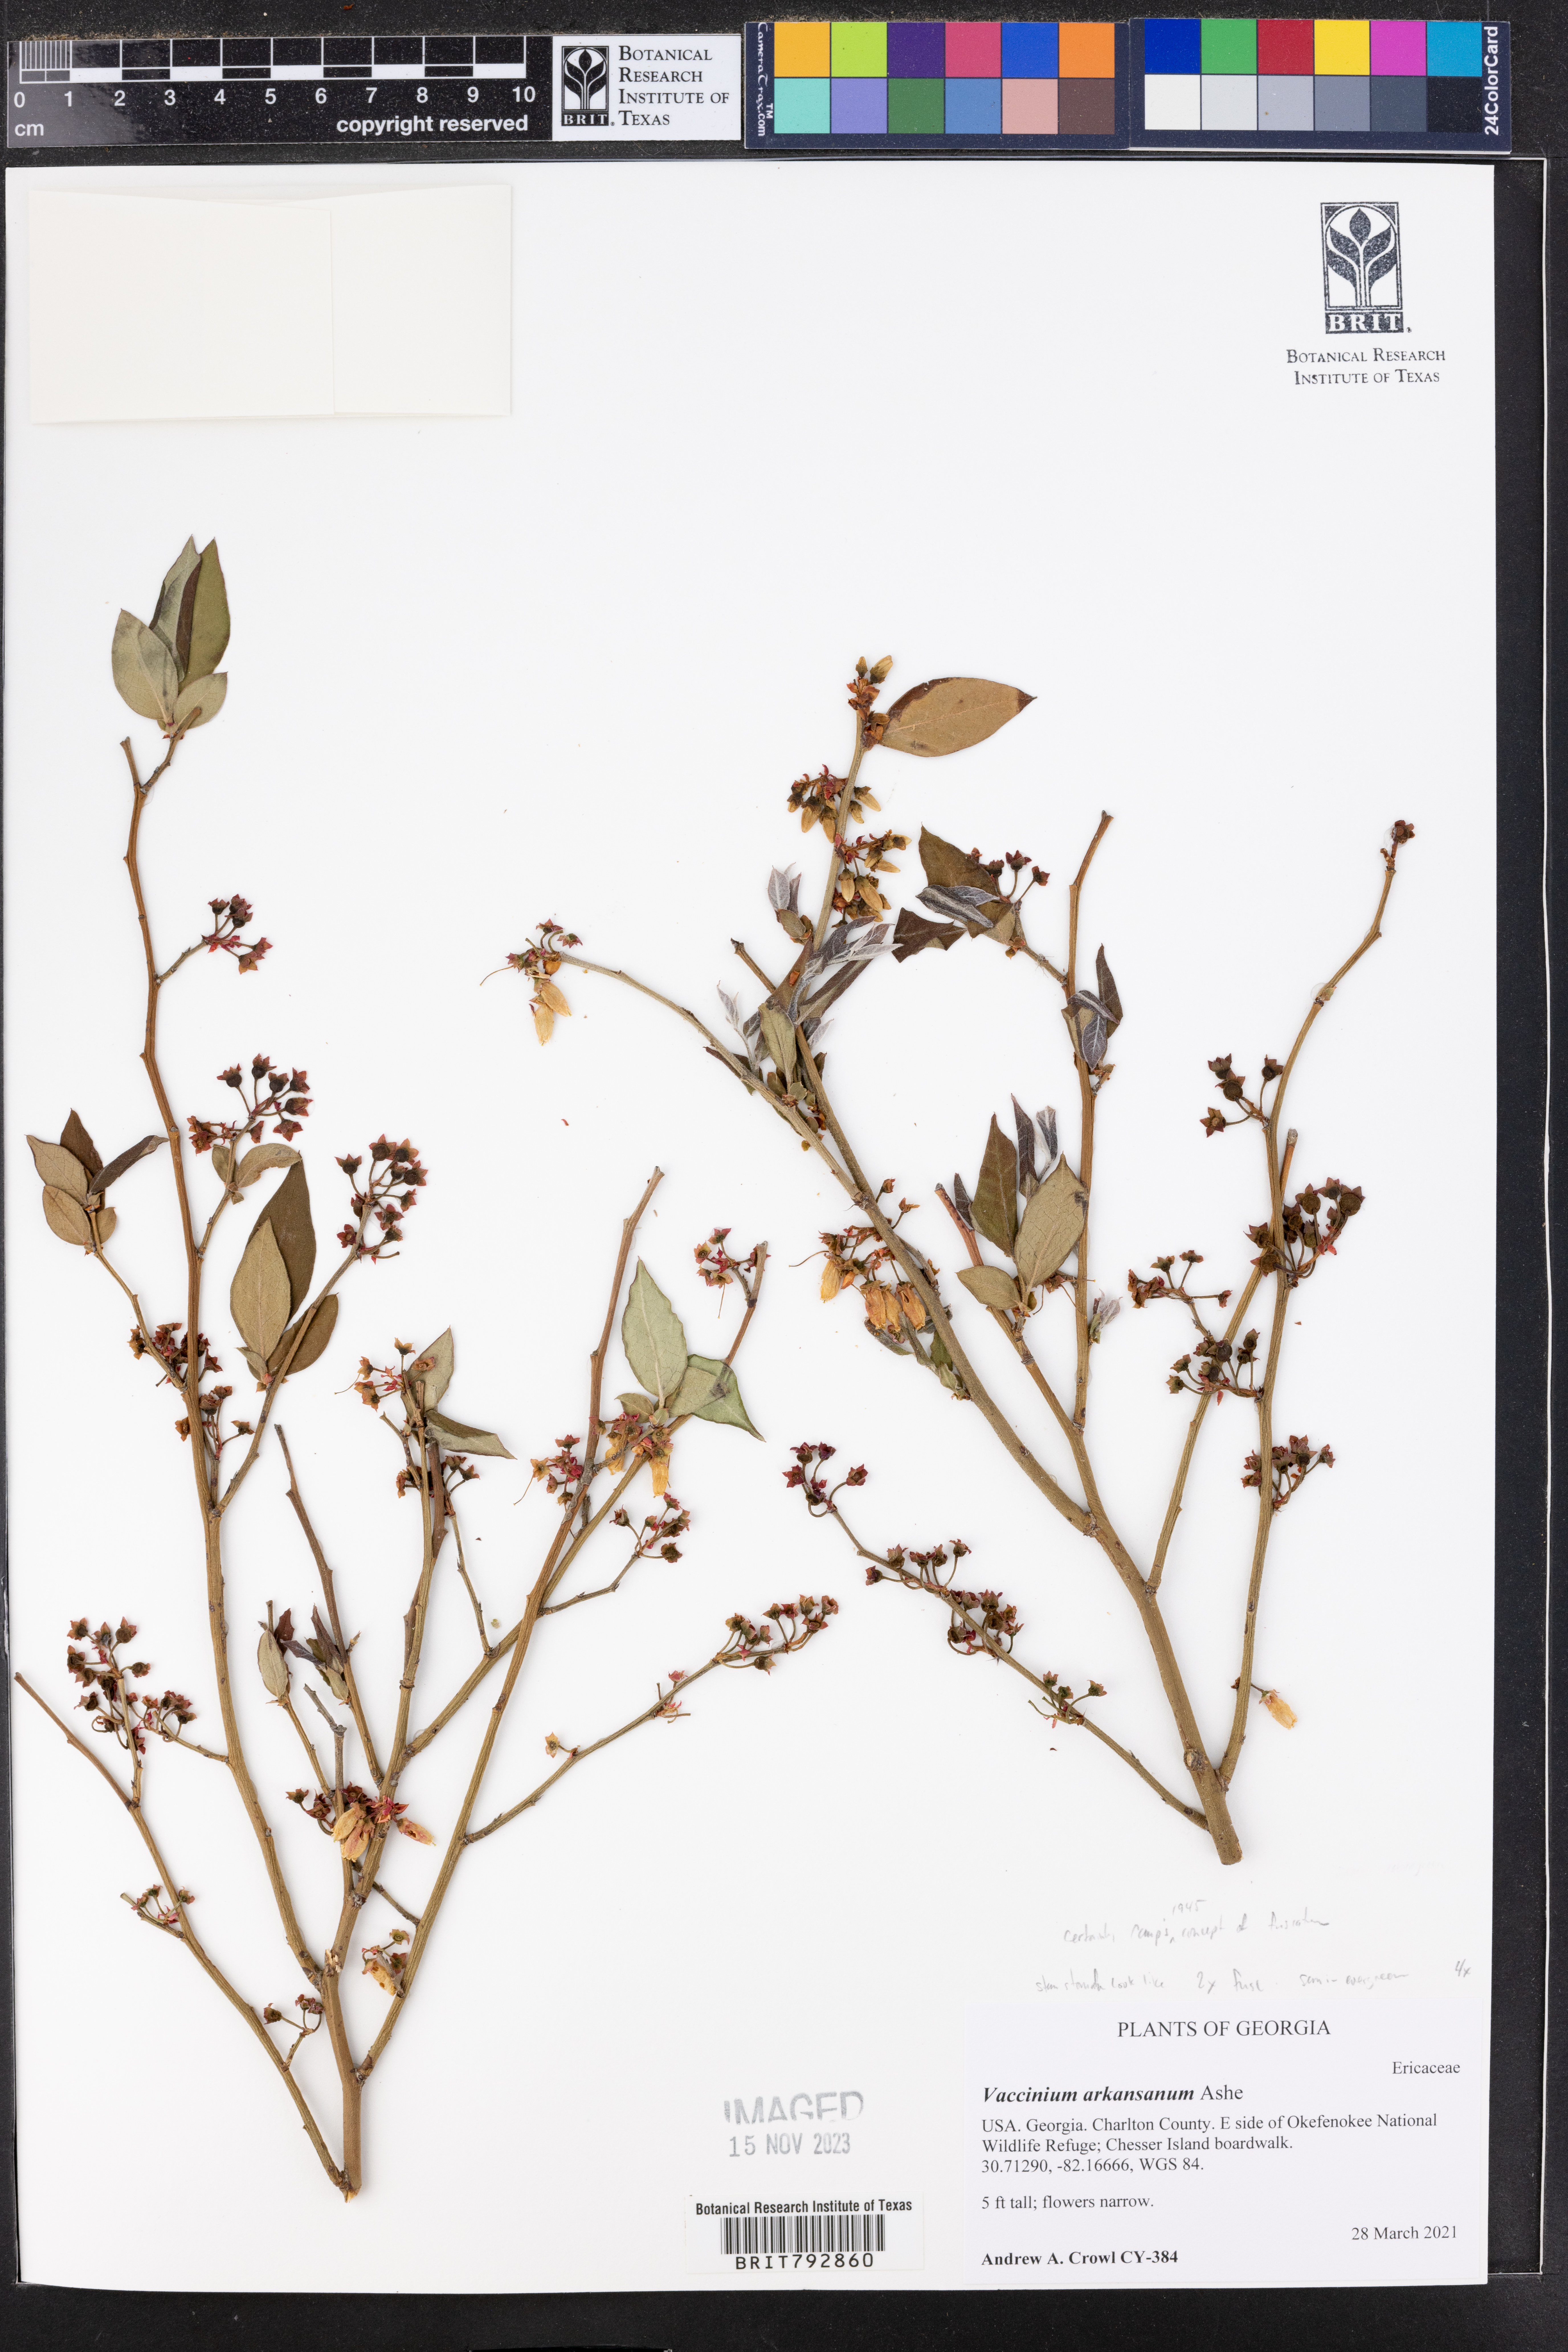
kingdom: Plantae
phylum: Tracheophyta
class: Magnoliopsida
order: Ericales
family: Ericaceae
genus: Vaccinium
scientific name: Vaccinium corymbosum
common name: Blueberry
